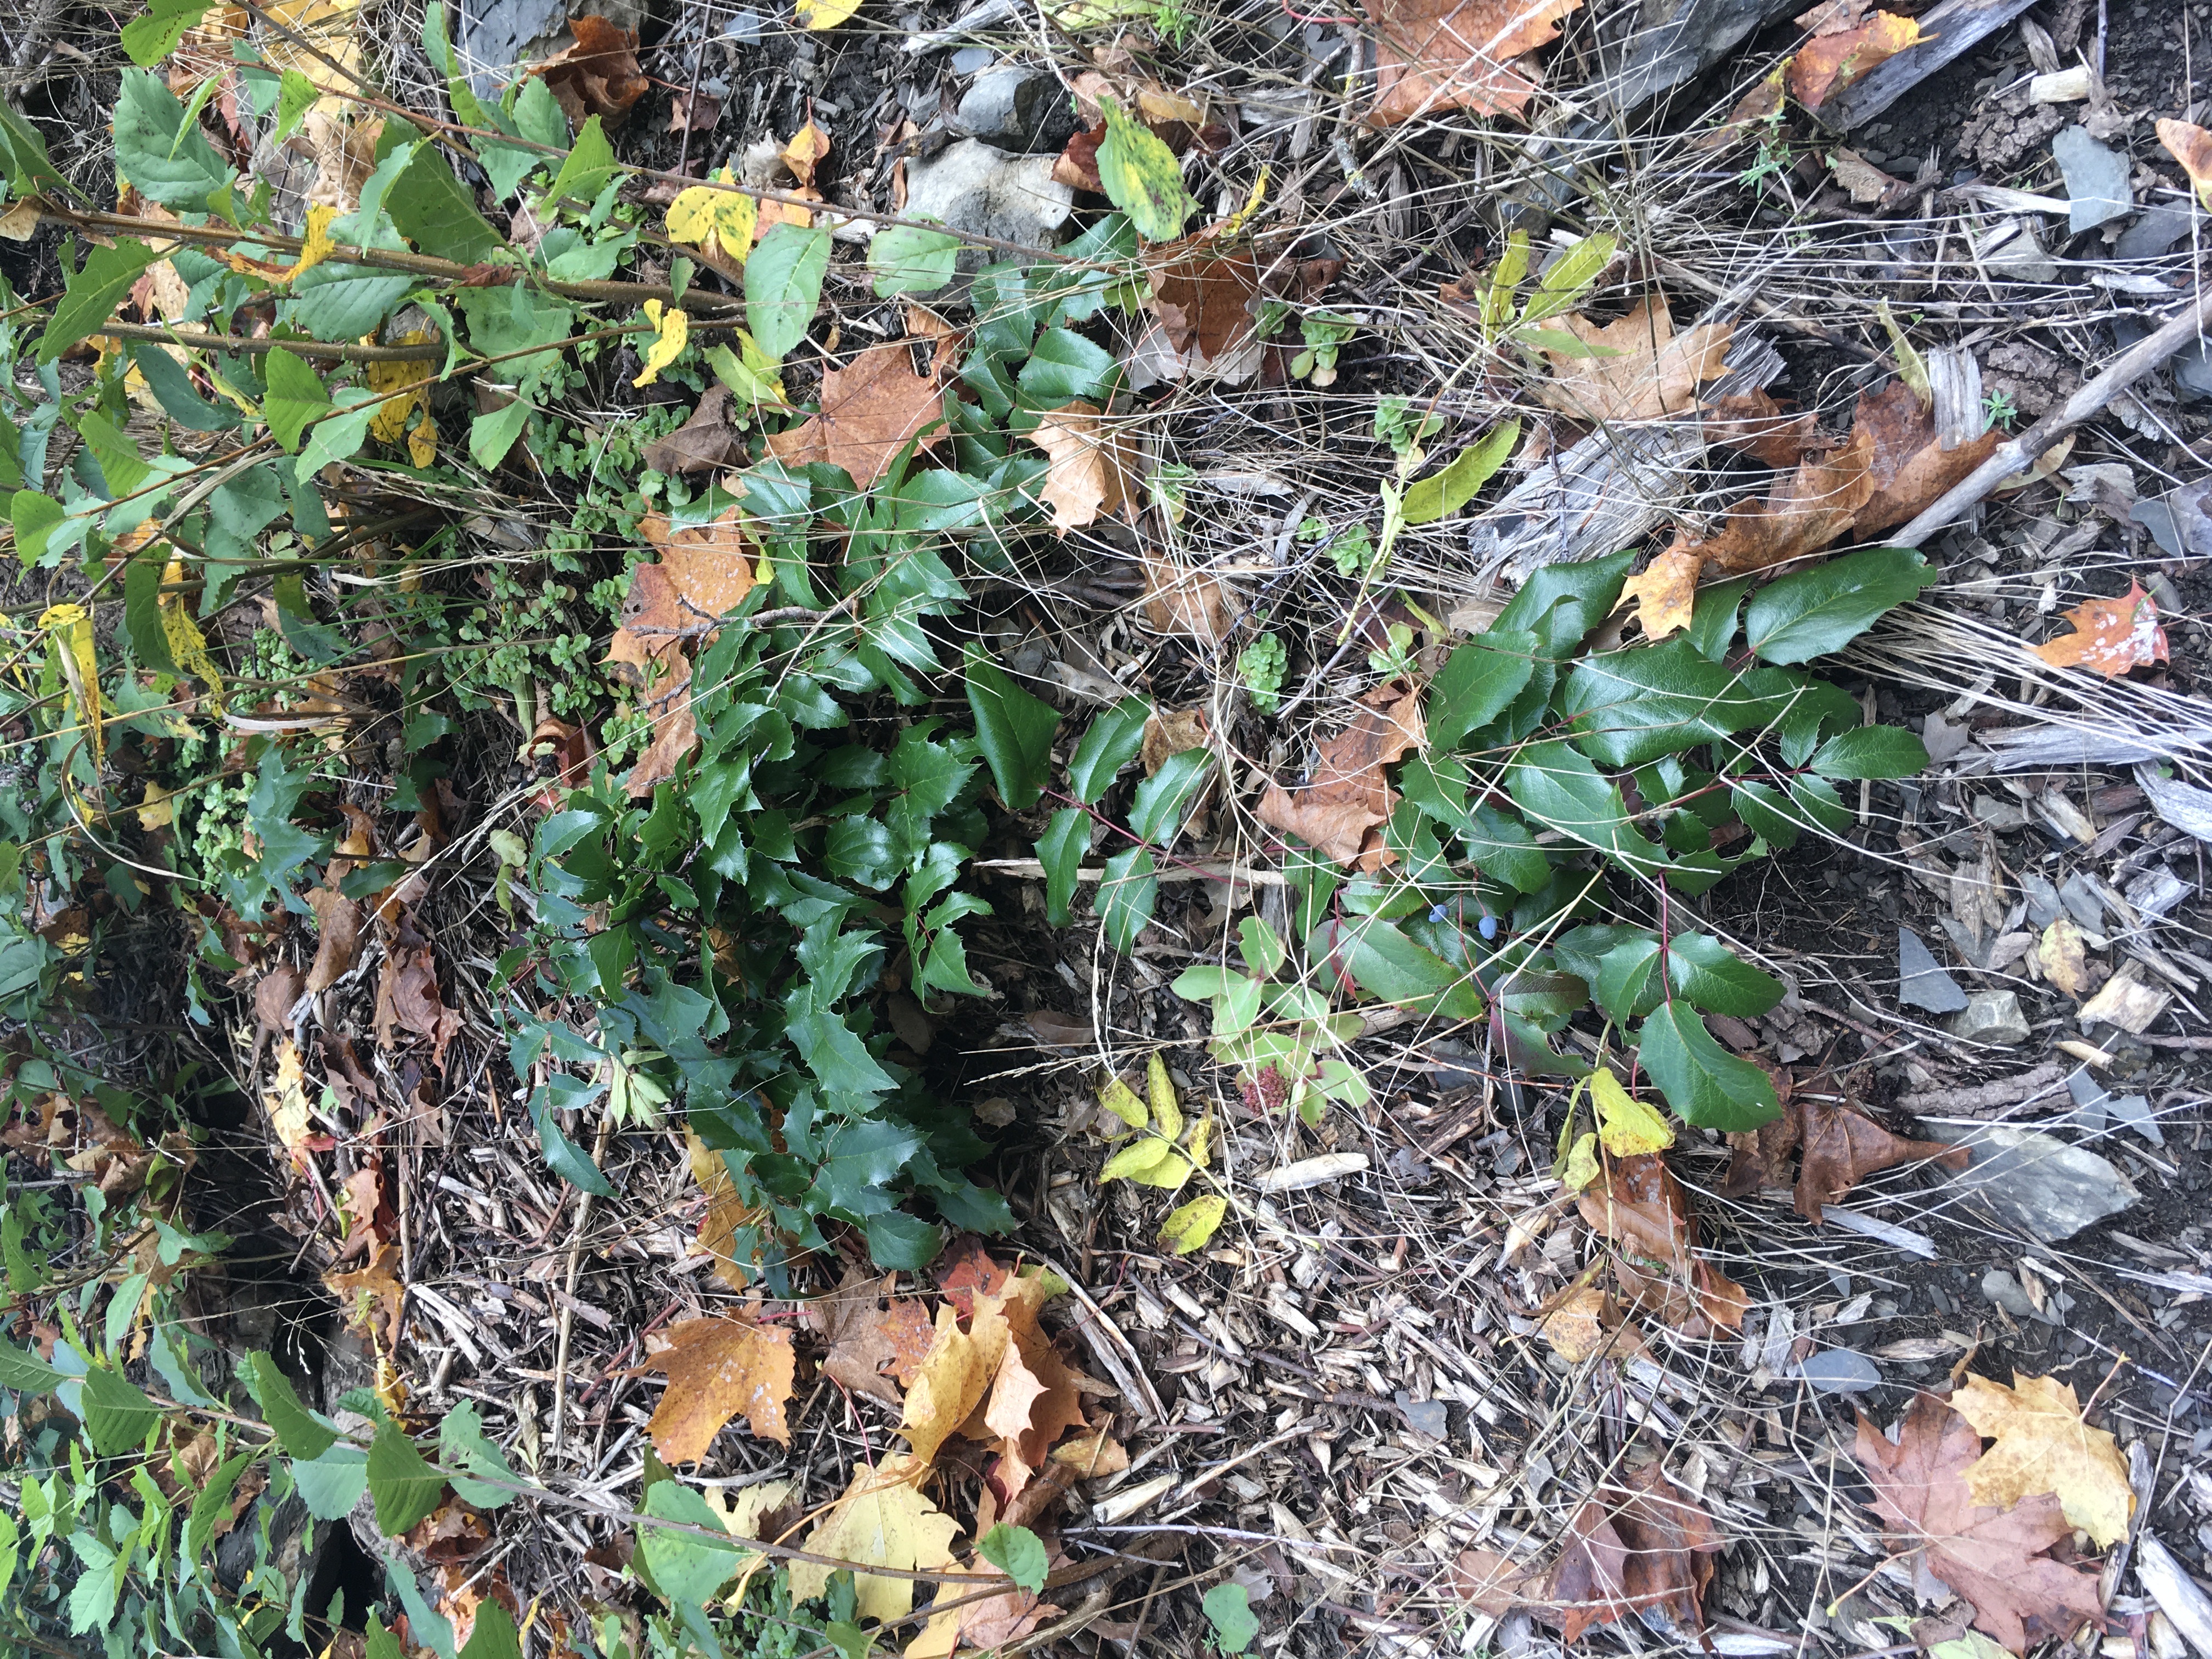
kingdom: Plantae
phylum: Tracheophyta
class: Magnoliopsida
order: Ranunculales
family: Berberidaceae
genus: Mahonia
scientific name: Mahonia aquifolium
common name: mahonie
